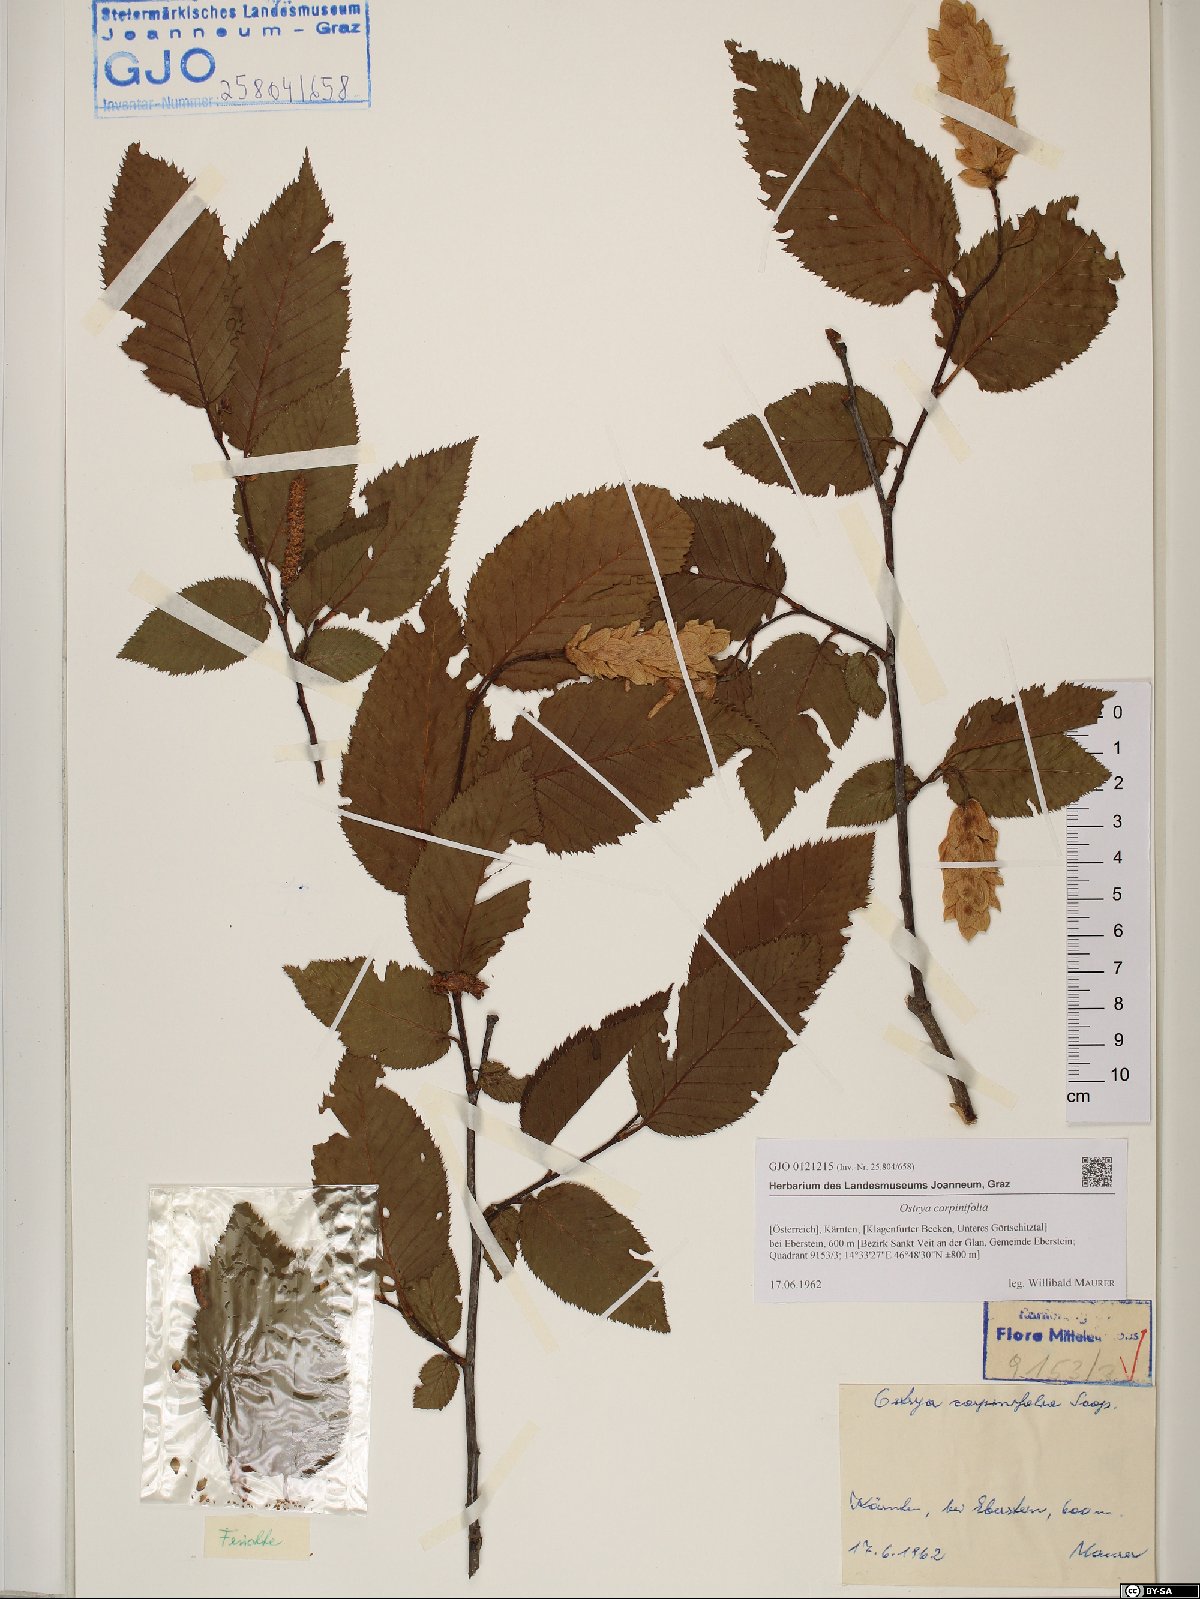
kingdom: Plantae
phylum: Tracheophyta
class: Magnoliopsida
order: Fagales
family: Betulaceae
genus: Ostrya
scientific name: Ostrya carpinifolia
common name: European hop-hornbeam
